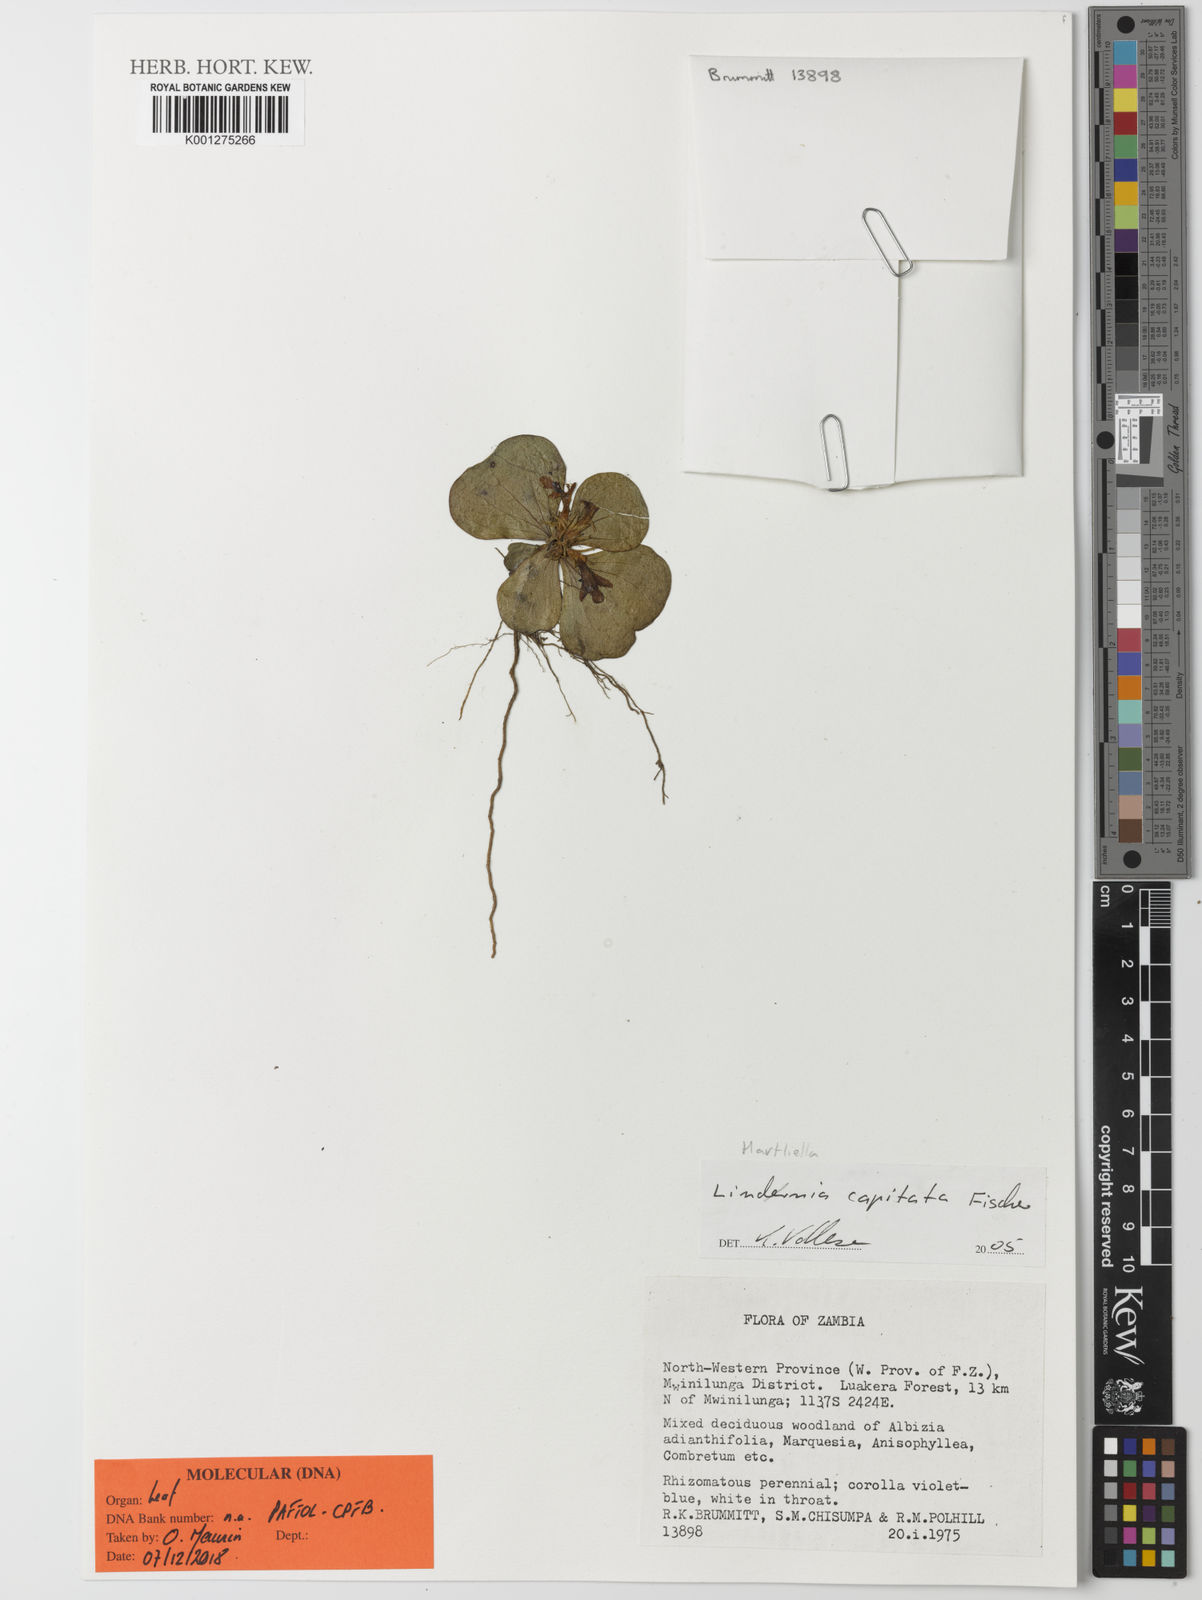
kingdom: Plantae
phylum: Tracheophyta
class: Magnoliopsida
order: Lamiales
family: Linderniaceae
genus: Scolophyllum
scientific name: Scolophyllum ilicifolium
